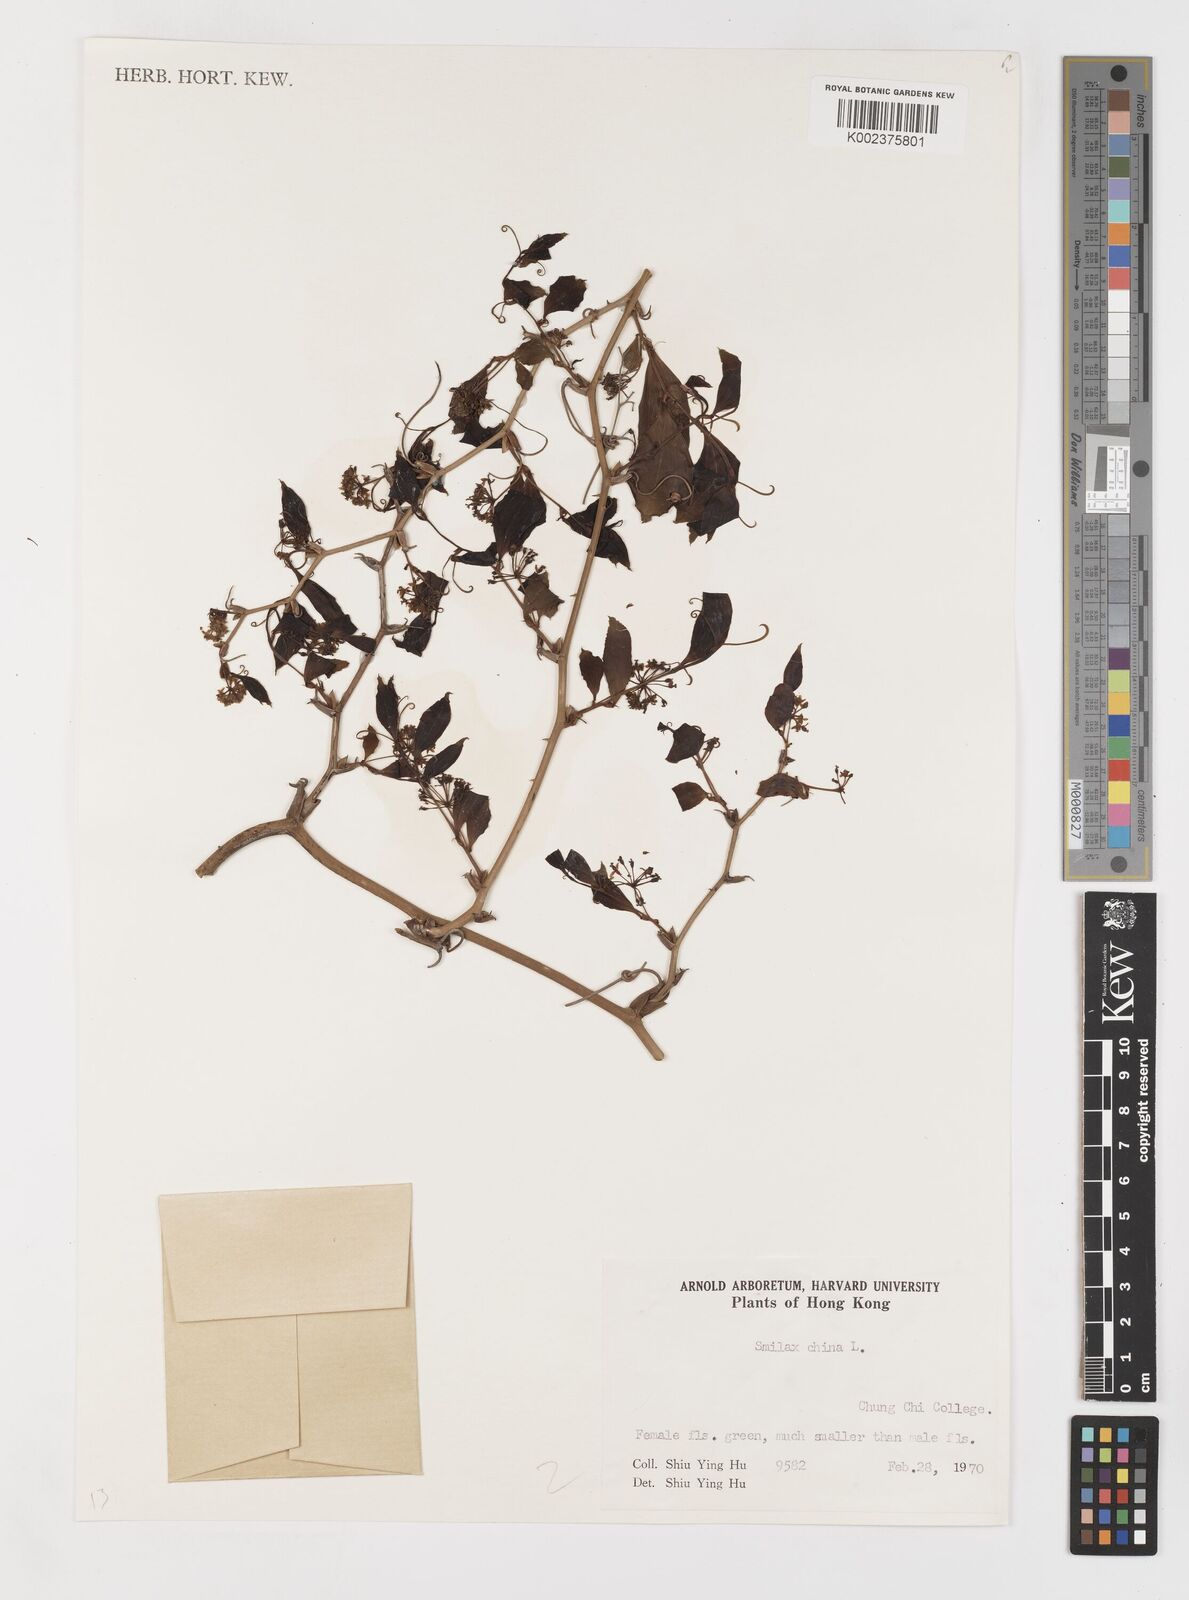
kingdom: Plantae
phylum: Tracheophyta
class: Liliopsida
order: Liliales
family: Smilacaceae
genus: Smilax
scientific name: Smilax china
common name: Chinaroot
